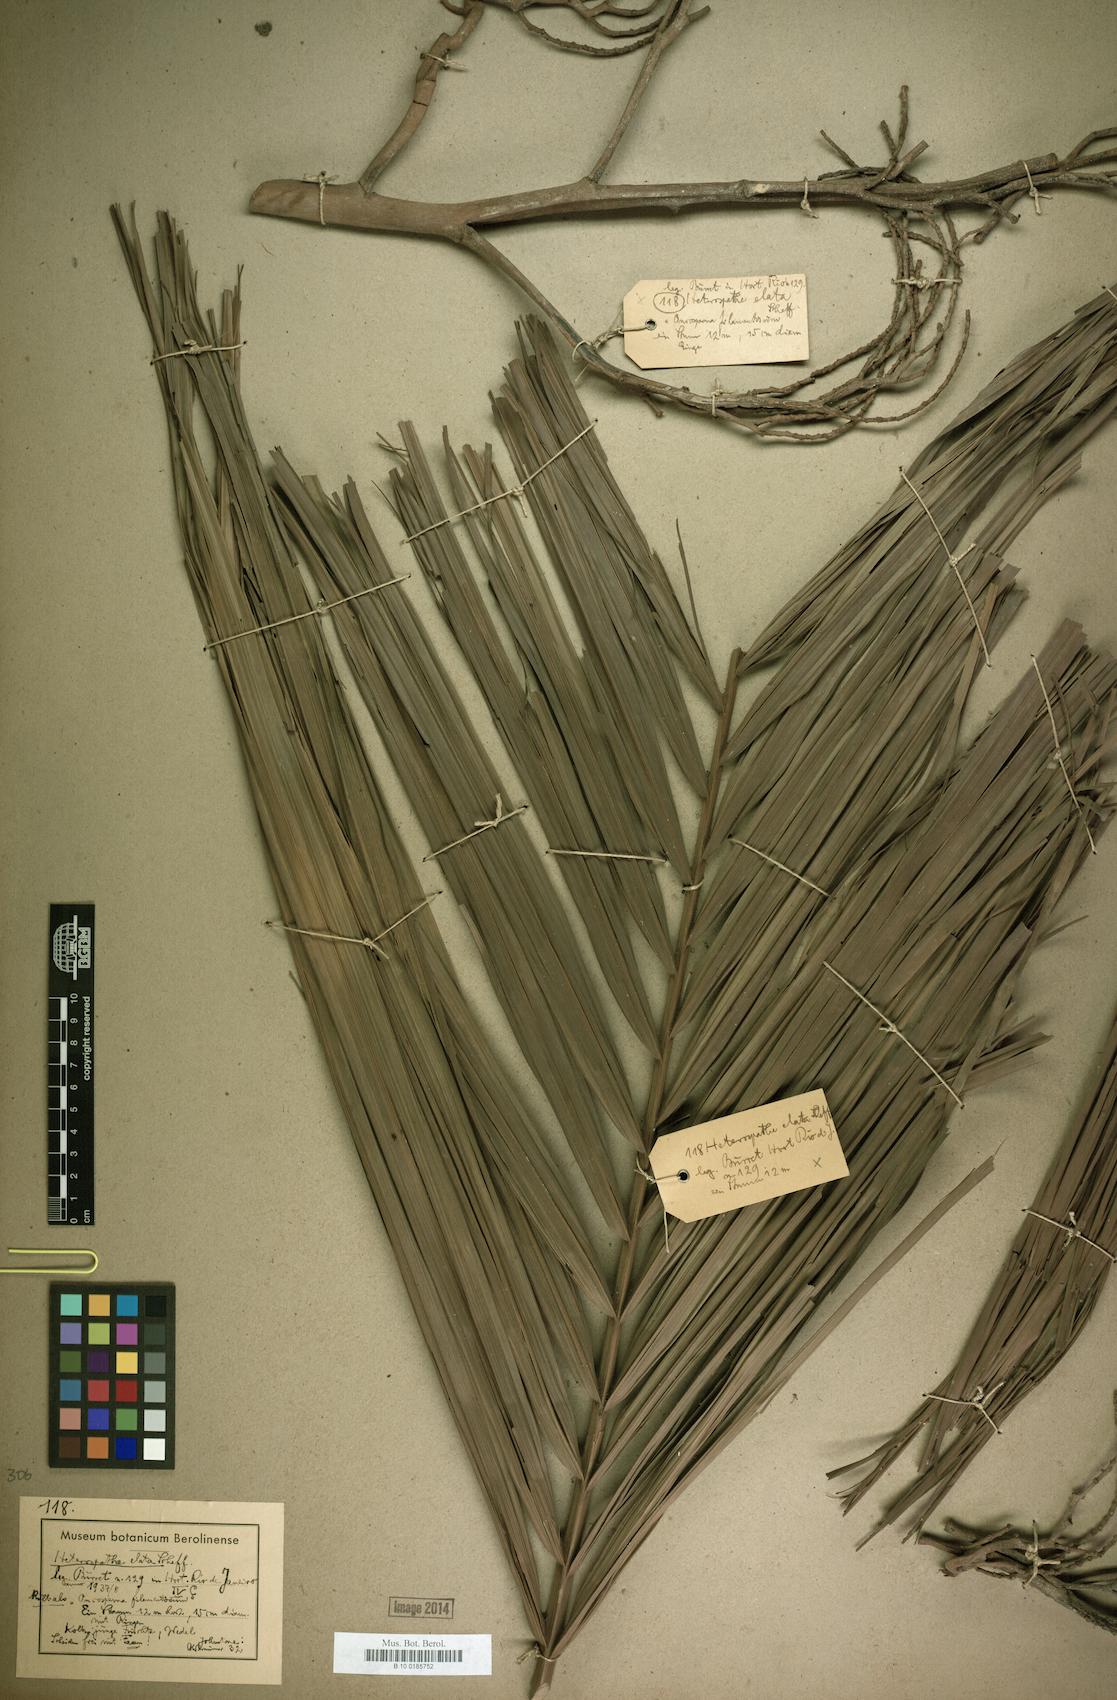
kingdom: Plantae
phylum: Tracheophyta
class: Liliopsida
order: Arecales
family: Arecaceae
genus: Heterospathe
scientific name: Heterospathe elata
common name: Sagisi palm
